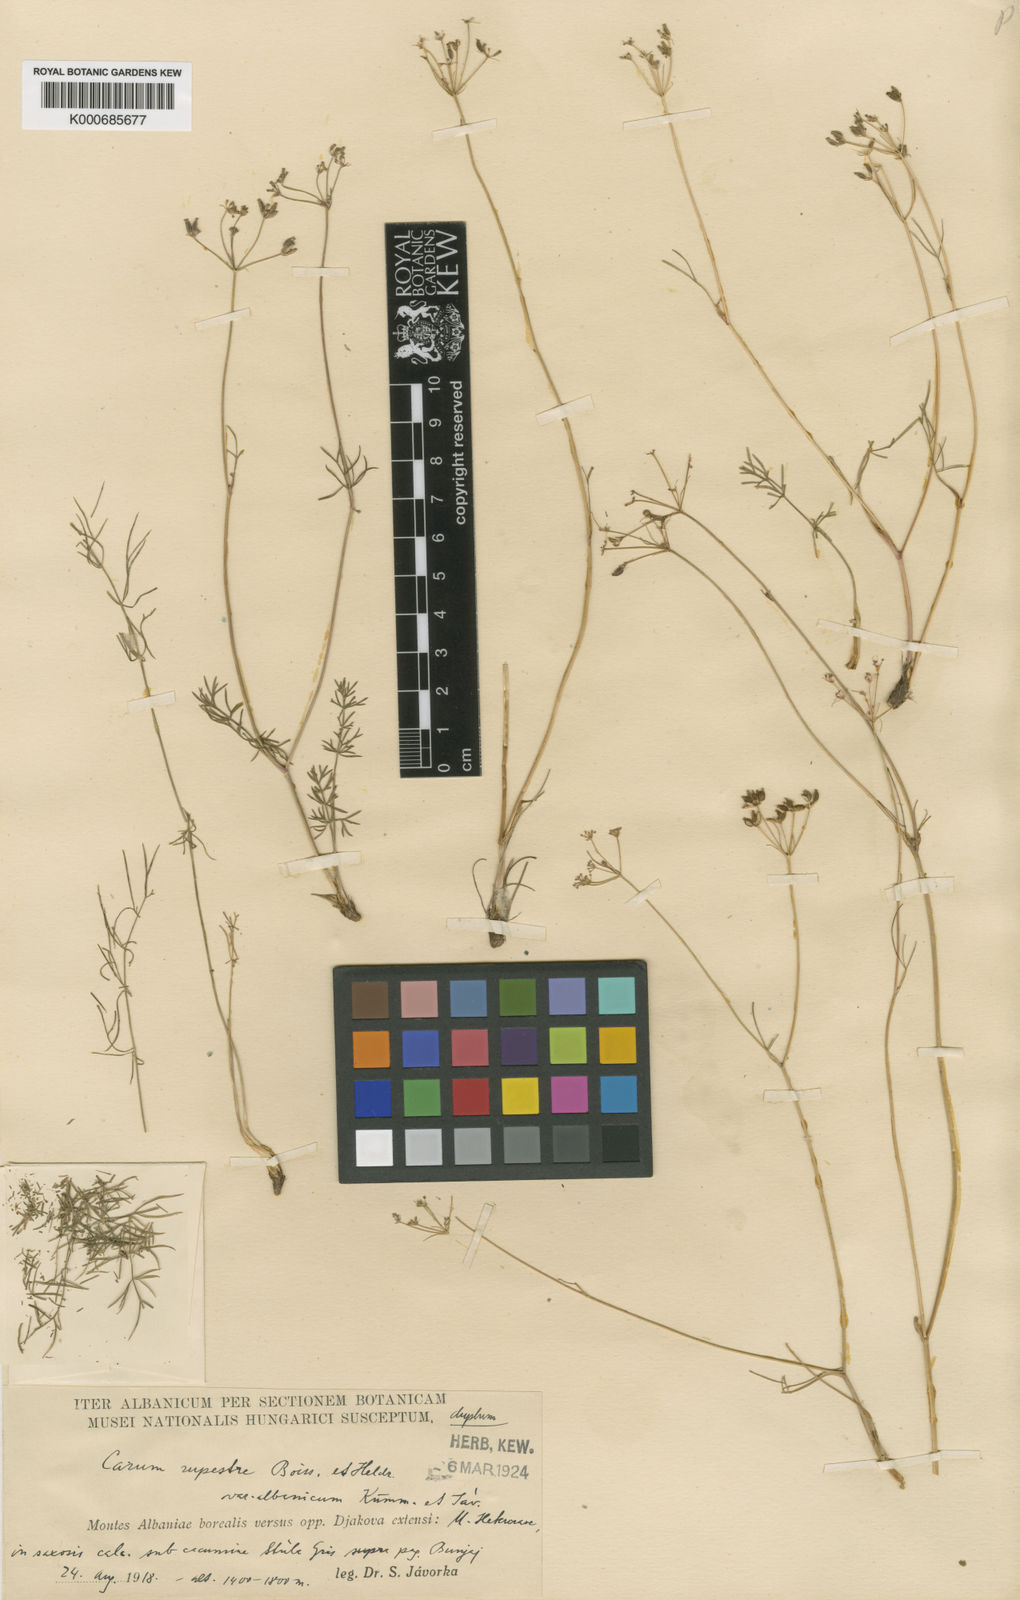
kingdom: Plantae
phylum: Tracheophyta
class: Magnoliopsida
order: Apiales
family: Apiaceae
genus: Carum
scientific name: Carum heldreichii
